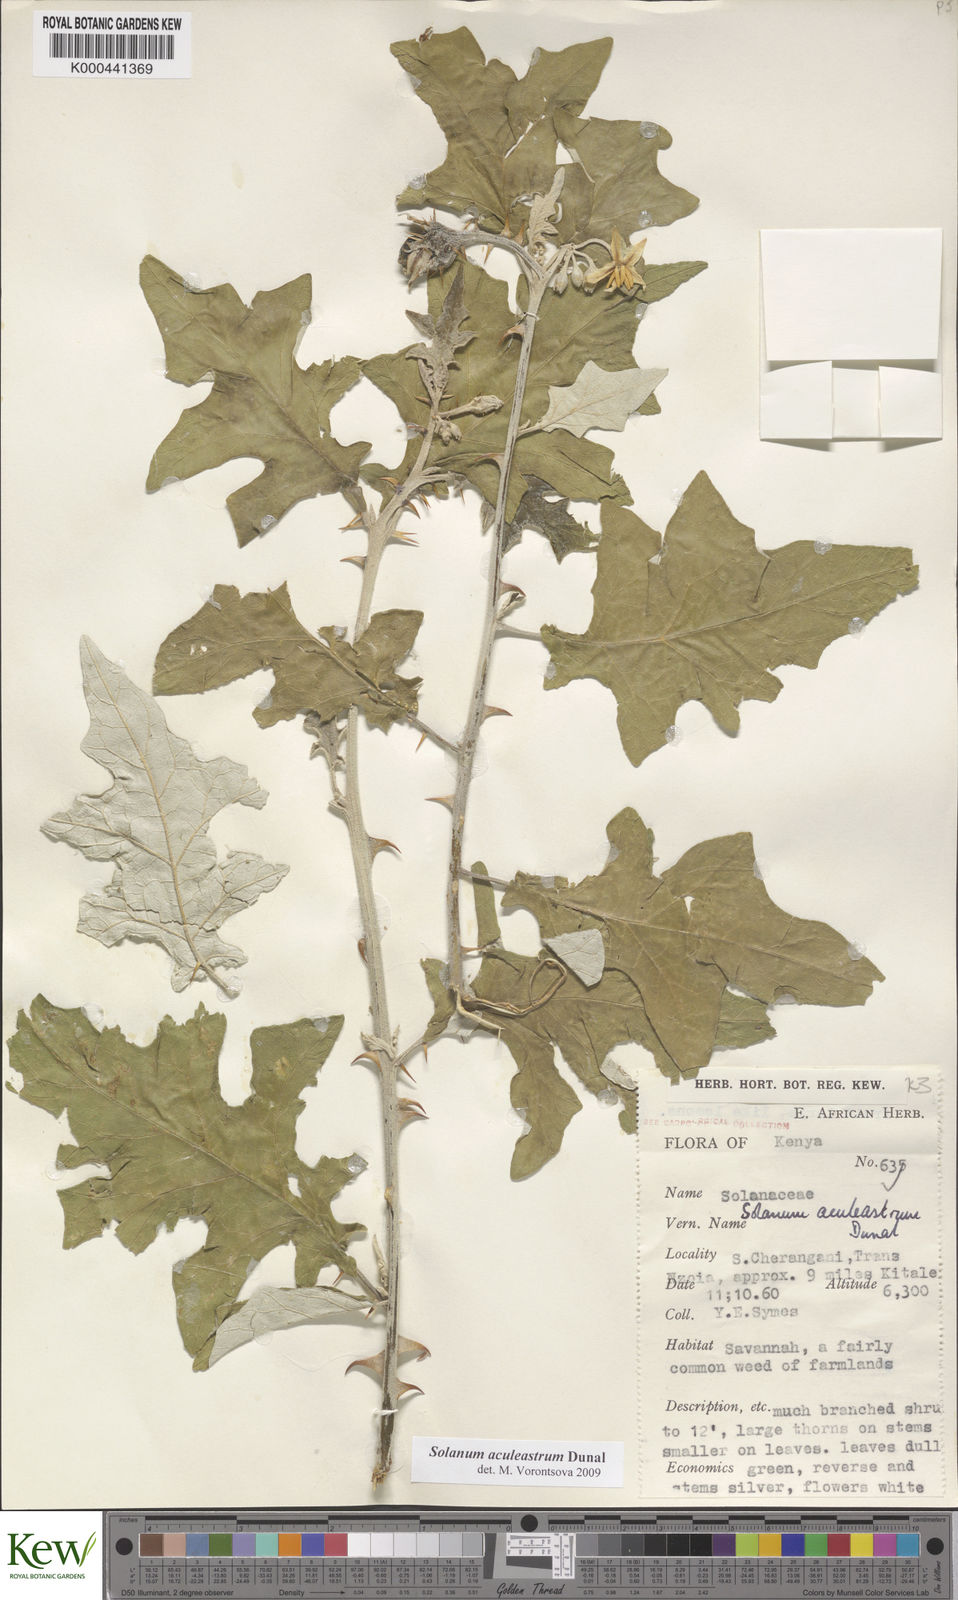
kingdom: Plantae
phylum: Tracheophyta
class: Magnoliopsida
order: Solanales
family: Solanaceae
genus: Solanum
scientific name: Solanum aculeastrum
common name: Goat bitter-apple
